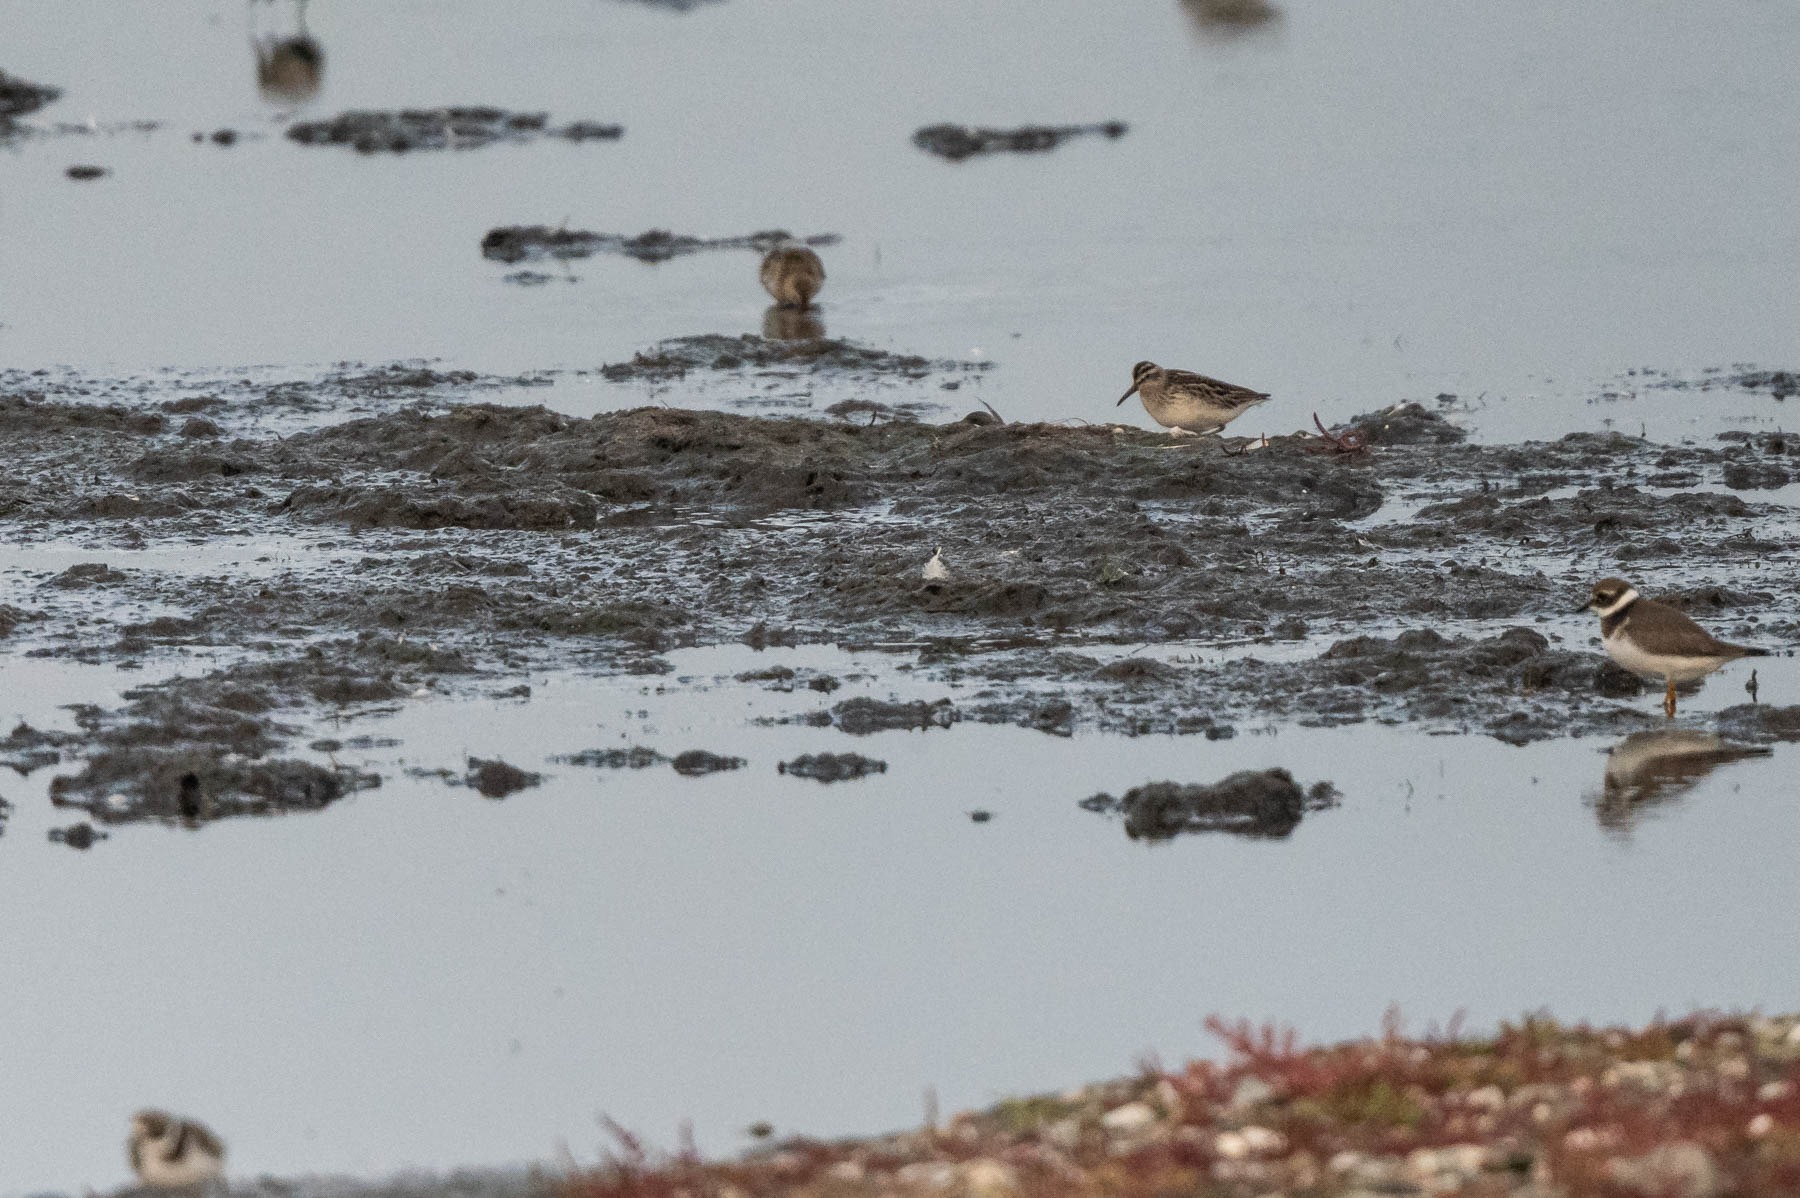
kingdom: Animalia
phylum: Chordata
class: Aves
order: Charadriiformes
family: Scolopacidae
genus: Calidris
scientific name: Calidris falcinellus
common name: Kærløber
